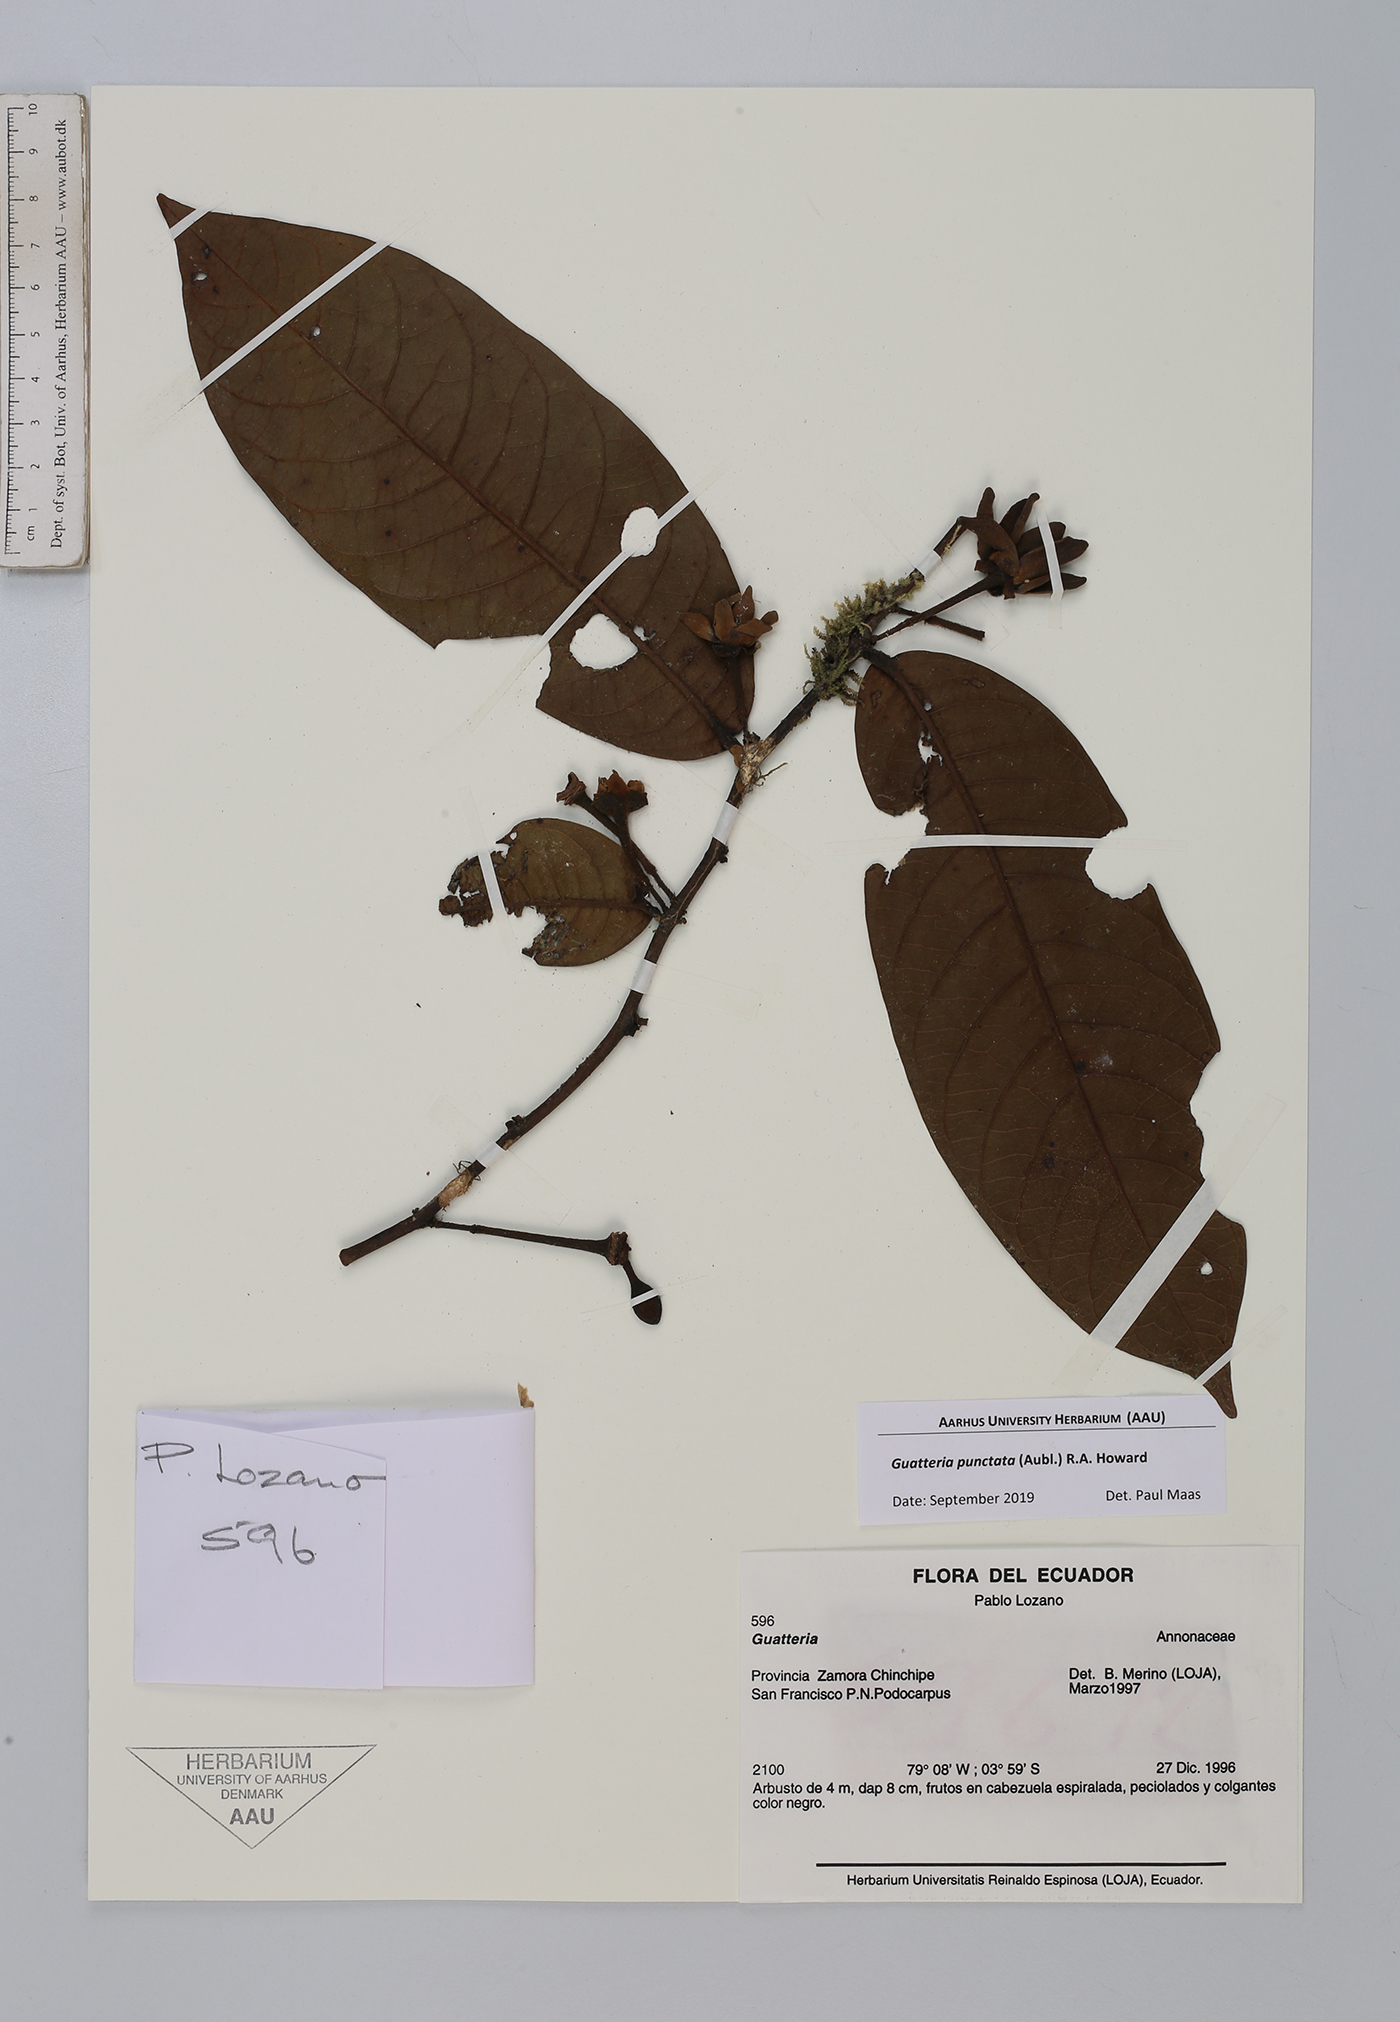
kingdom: Plantae
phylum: Tracheophyta
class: Magnoliopsida
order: Magnoliales
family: Annonaceae
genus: Guatteria
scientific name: Guatteria punctata
